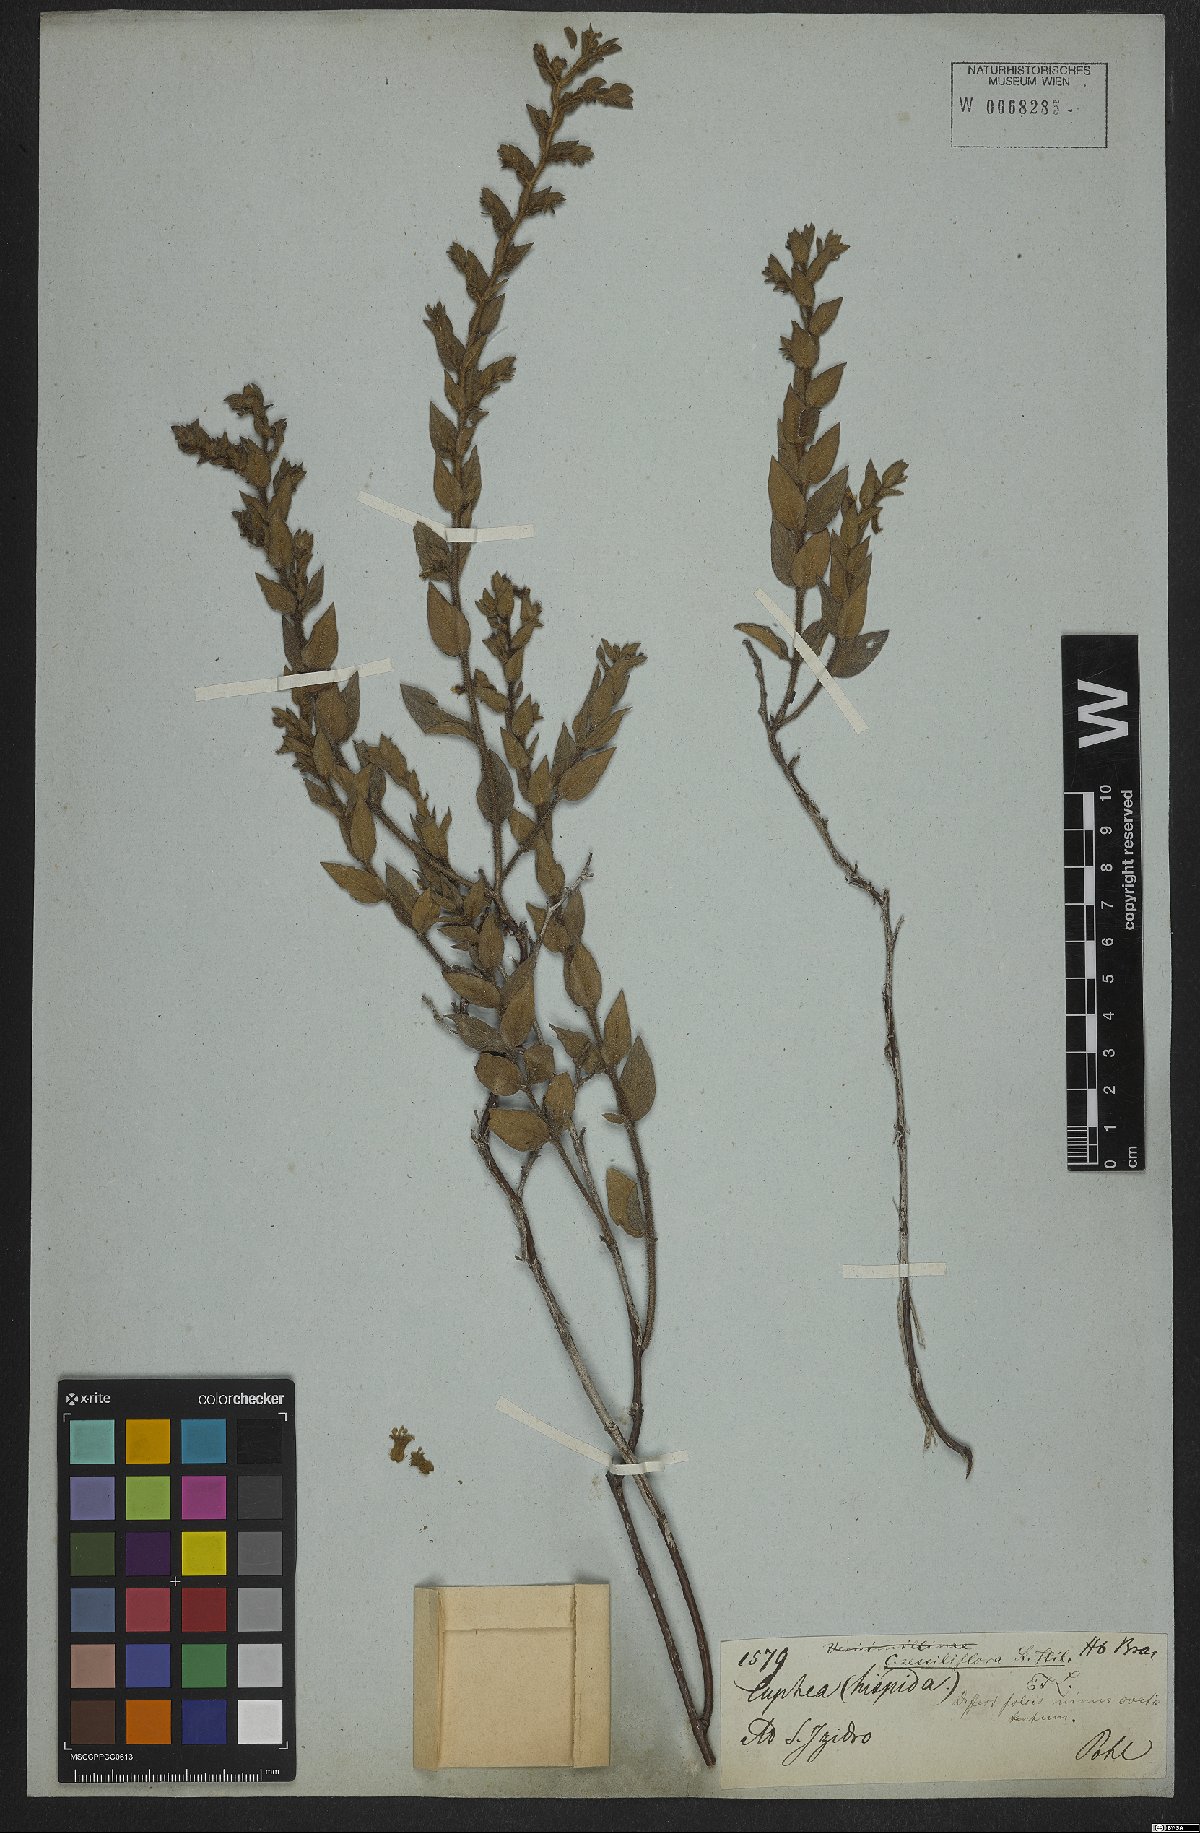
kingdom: Plantae
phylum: Tracheophyta
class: Magnoliopsida
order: Myrtales
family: Lythraceae
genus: Cuphea
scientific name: Cuphea sessiliflora
